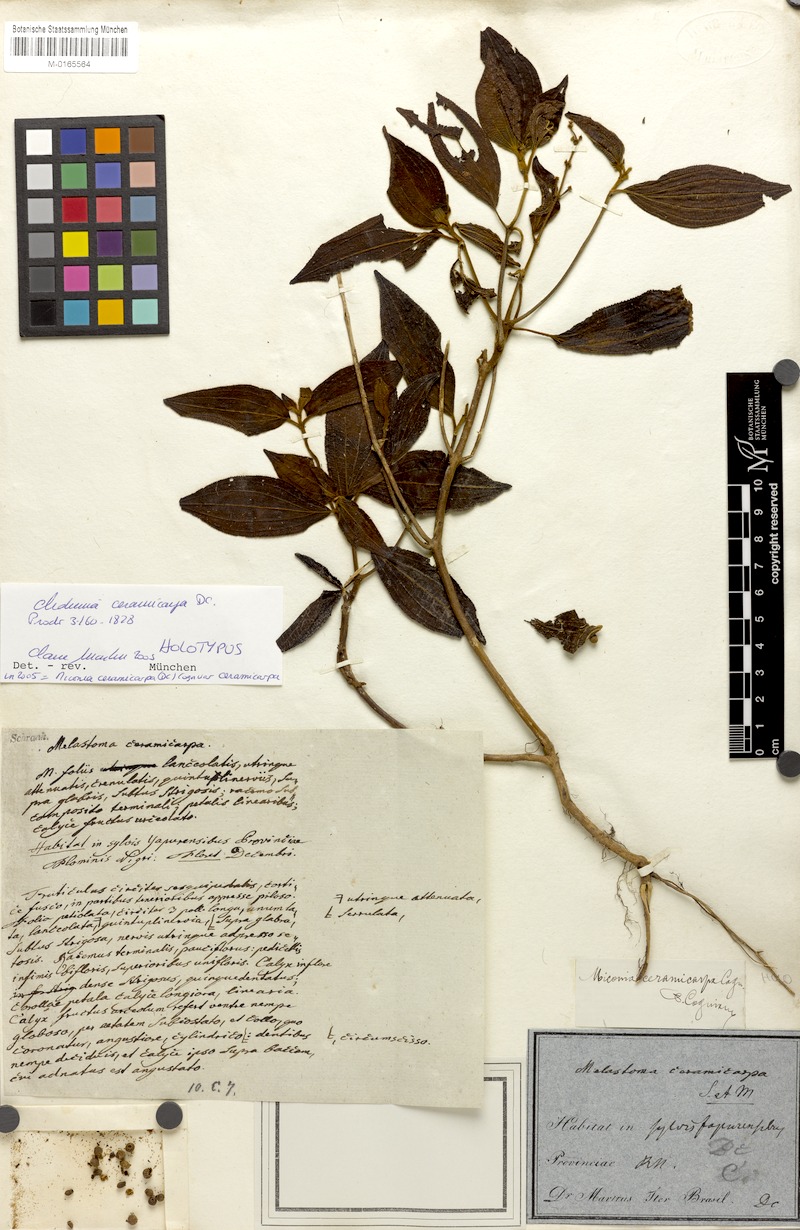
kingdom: Plantae
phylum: Tracheophyta
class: Magnoliopsida
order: Myrtales
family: Melastomataceae
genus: Miconia
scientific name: Miconia ceramicarpa
